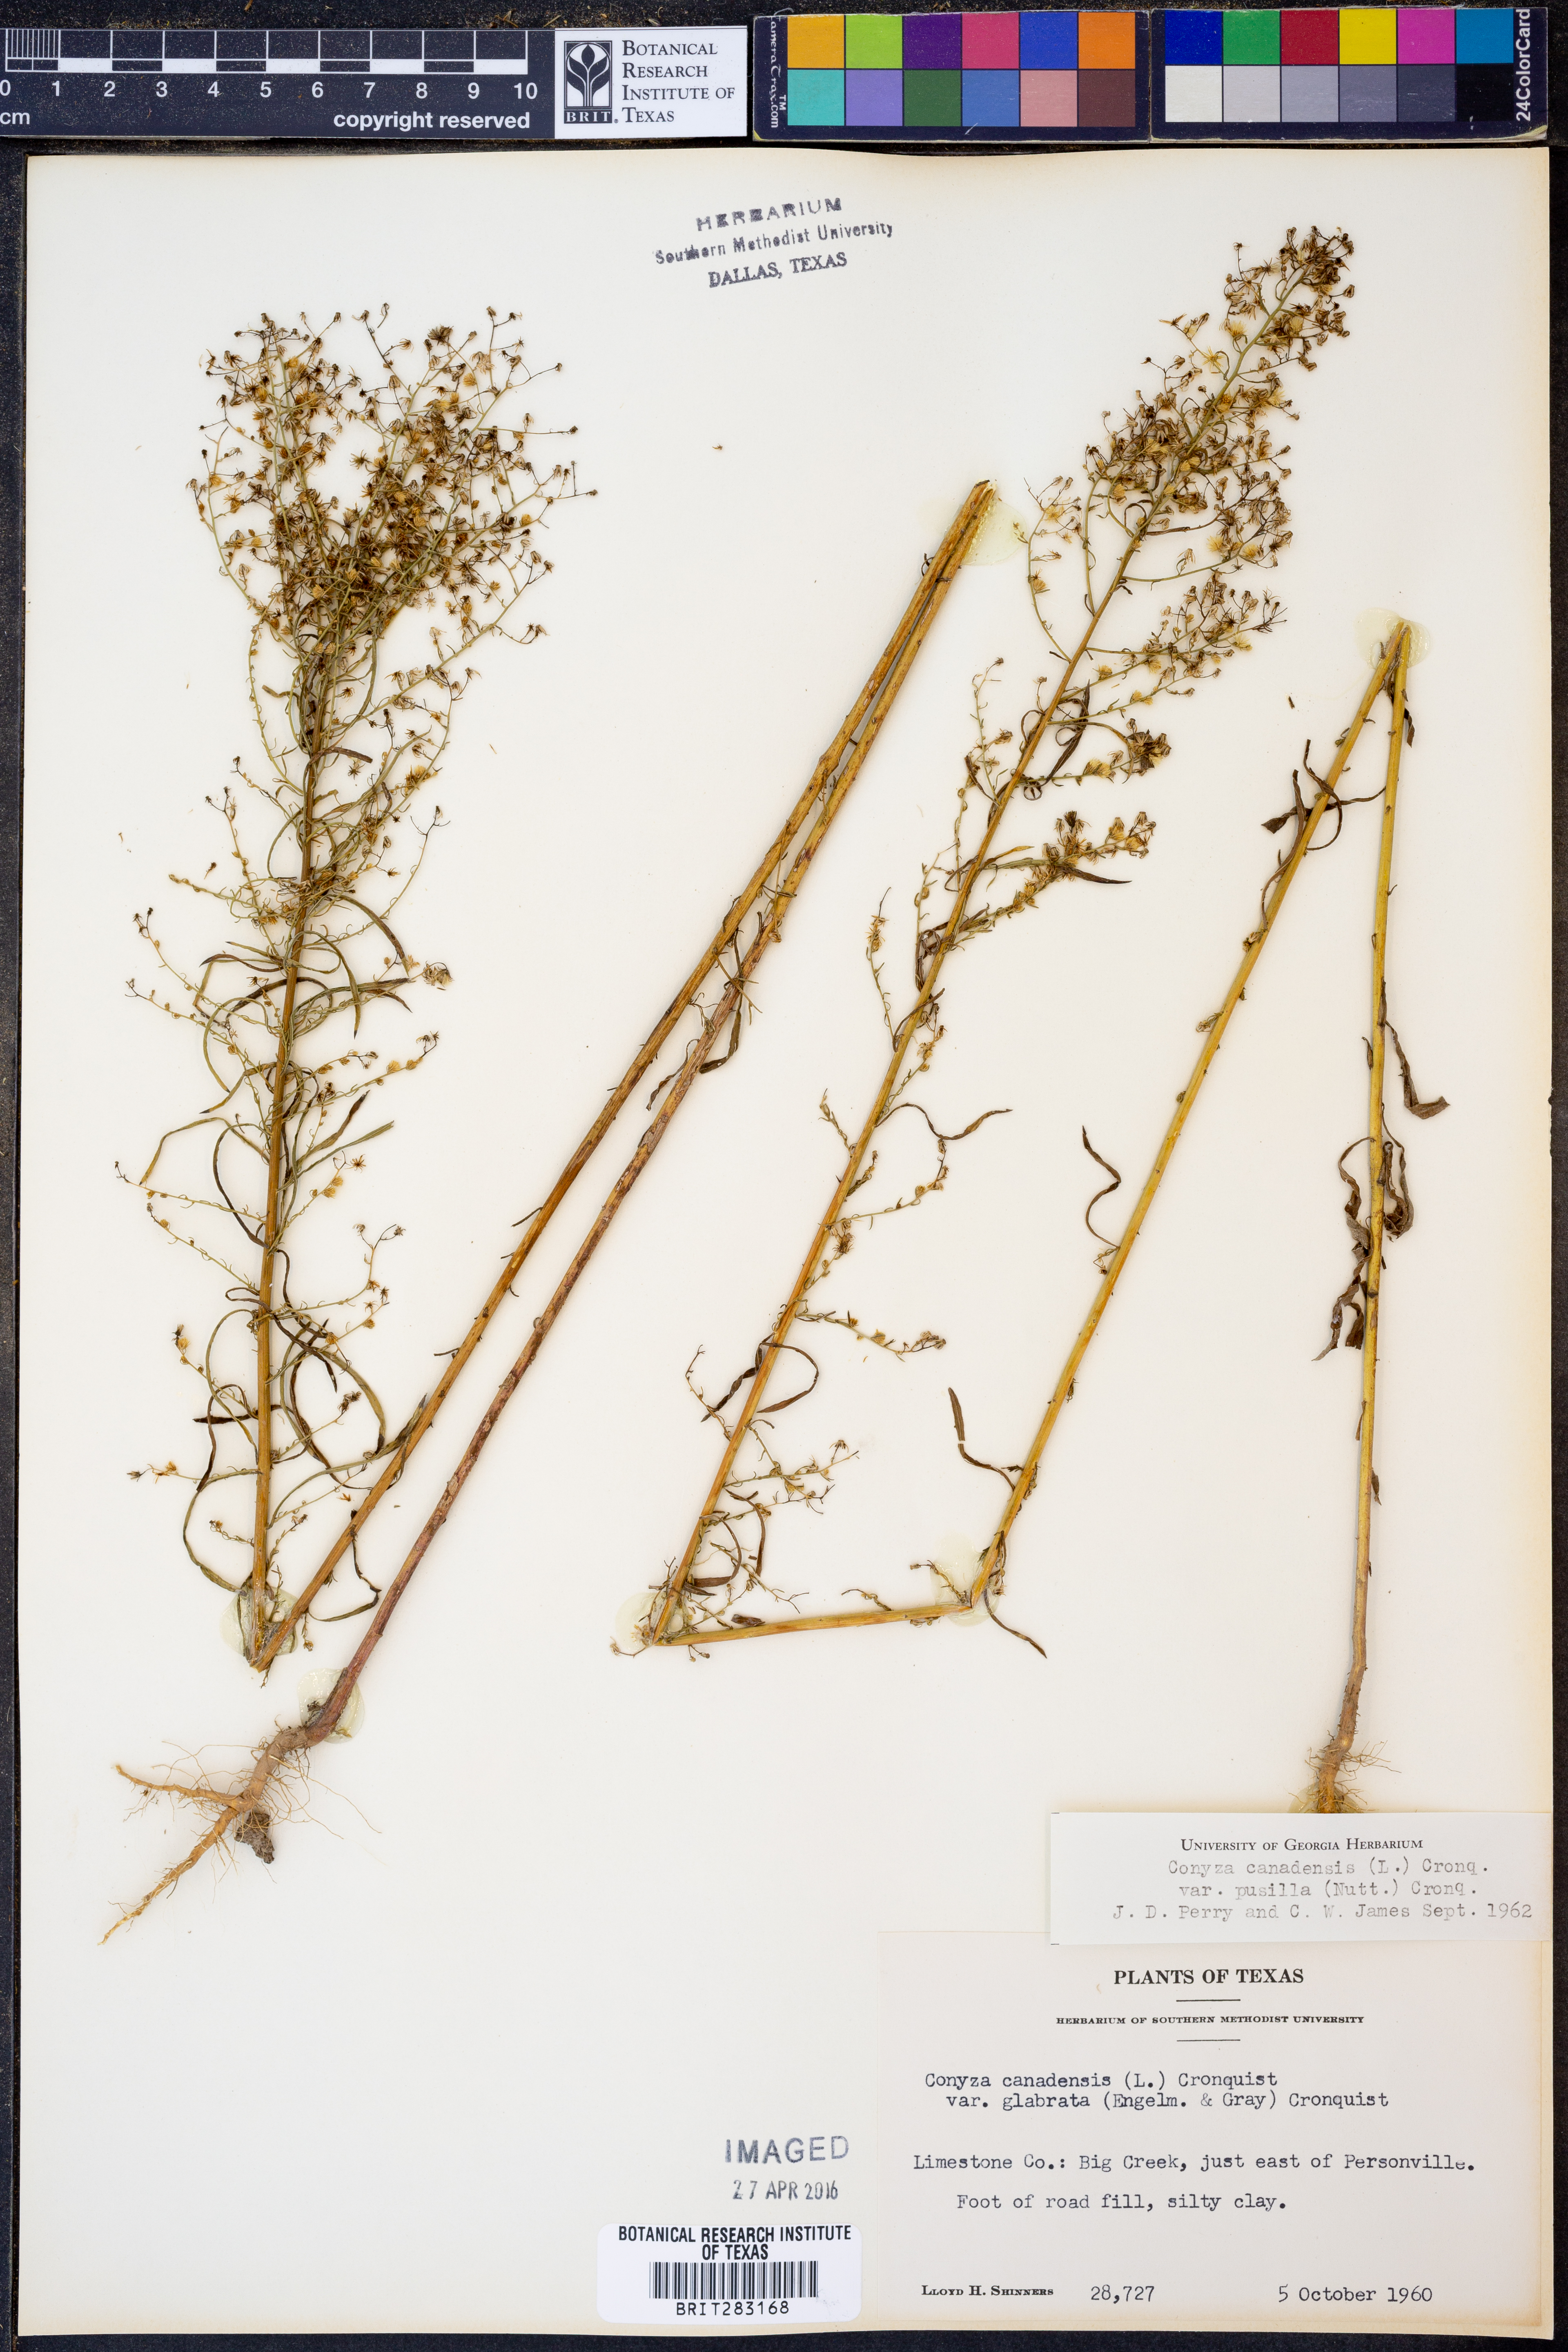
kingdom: Plantae
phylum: Tracheophyta
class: Magnoliopsida
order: Asterales
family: Asteraceae
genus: Erigeron
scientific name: Erigeron canadensis
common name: Canadian fleabane
